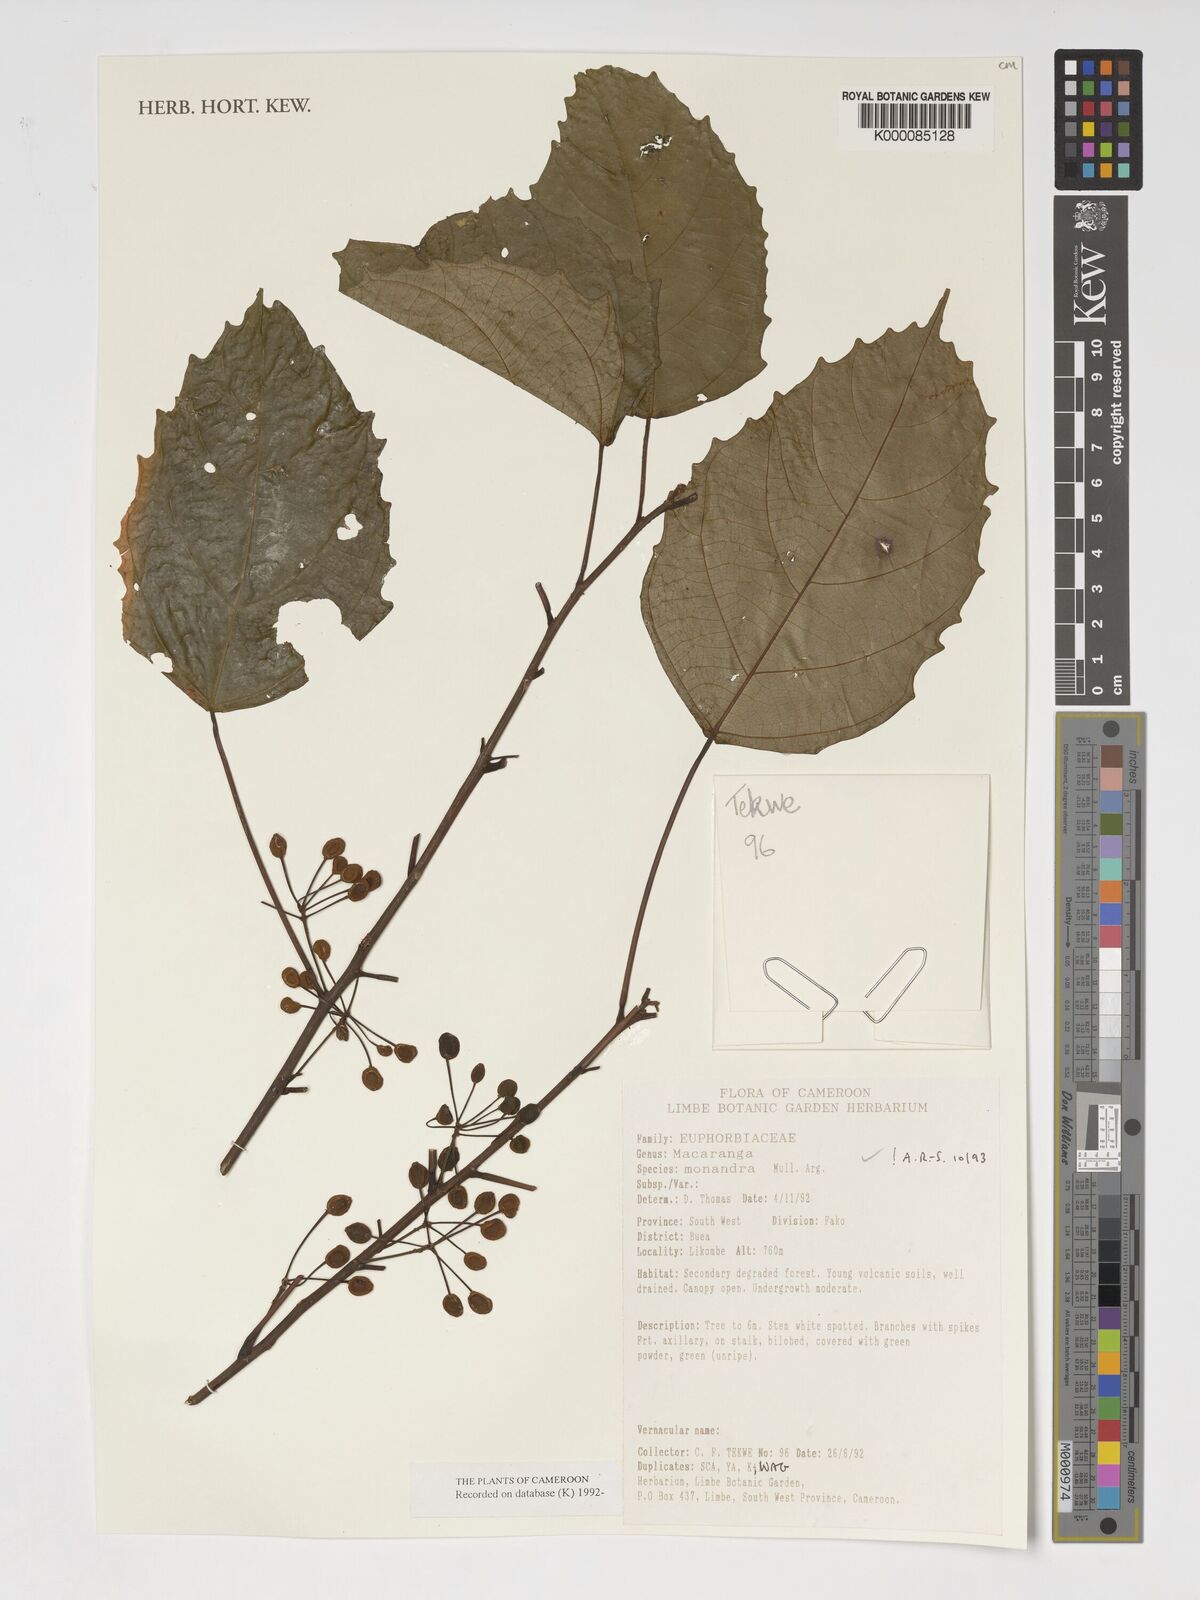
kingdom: Plantae
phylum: Tracheophyta
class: Magnoliopsida
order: Malpighiales
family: Euphorbiaceae
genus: Macaranga
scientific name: Macaranga
